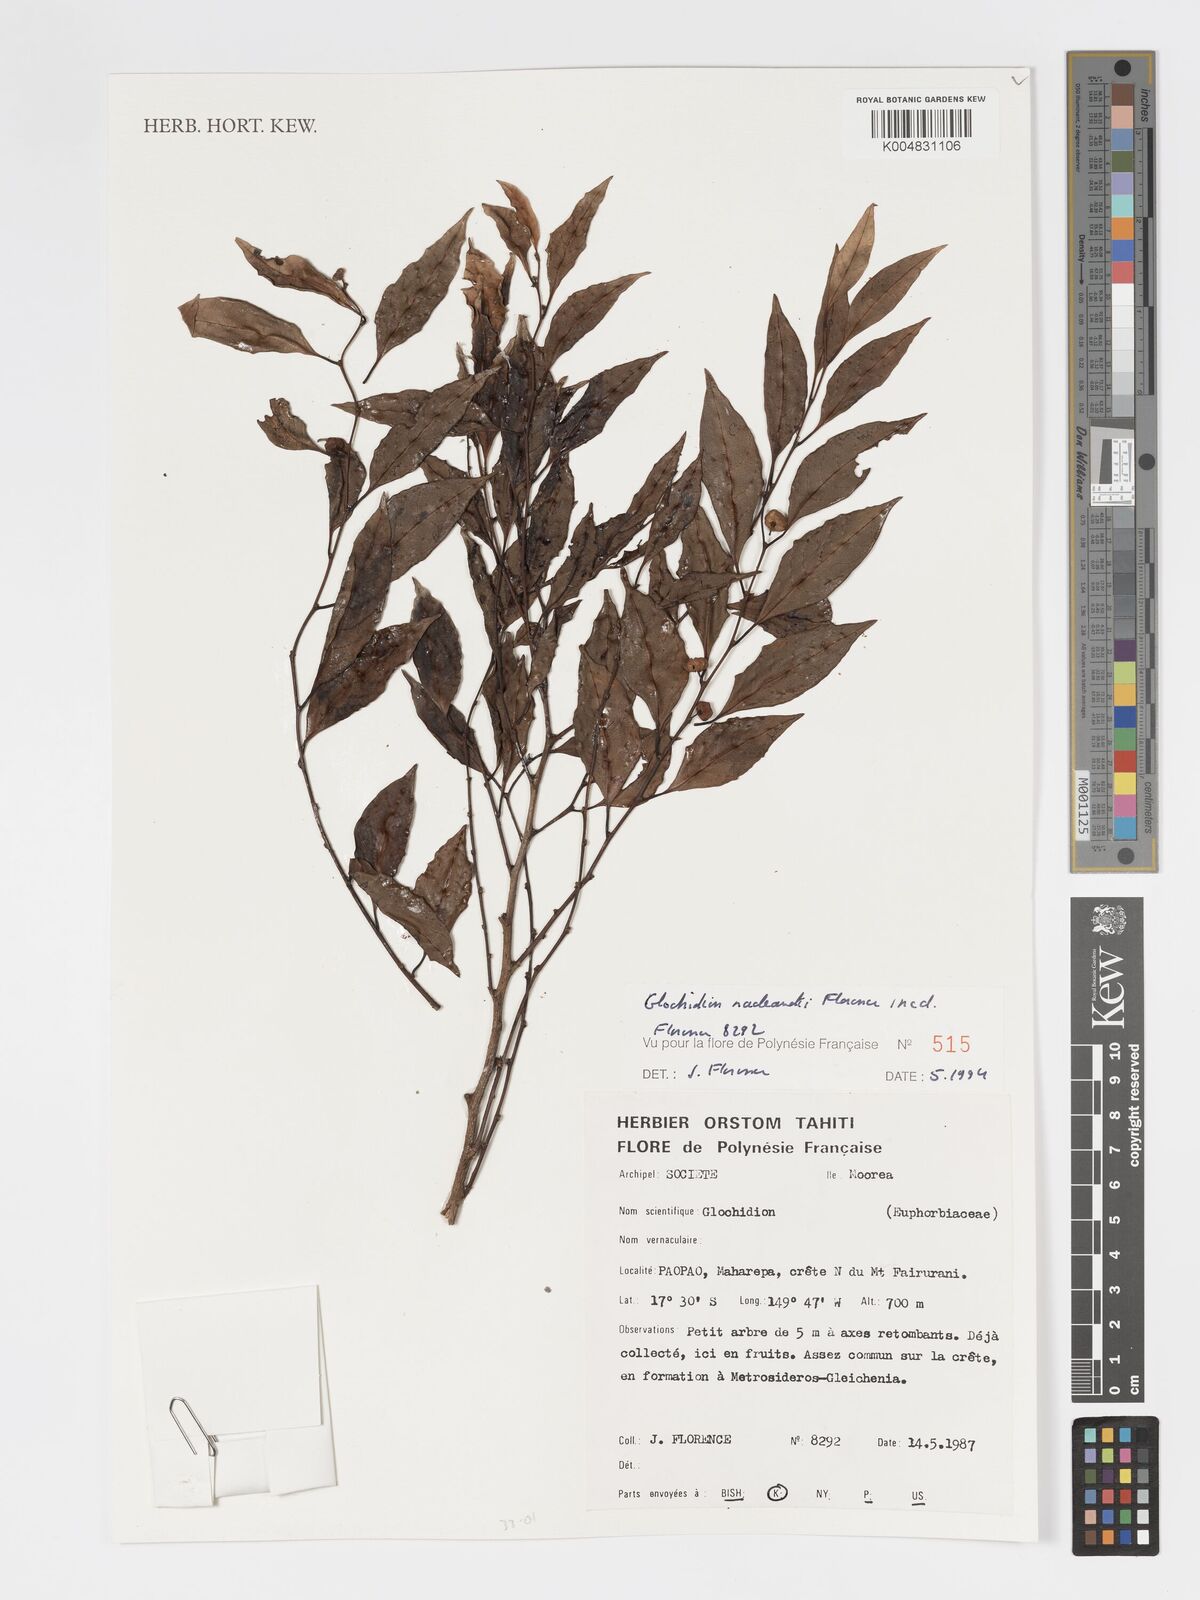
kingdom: Plantae
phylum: Tracheophyta
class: Magnoliopsida
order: Malpighiales
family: Phyllanthaceae
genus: Glochidion
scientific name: Glochidion nadeaudii
